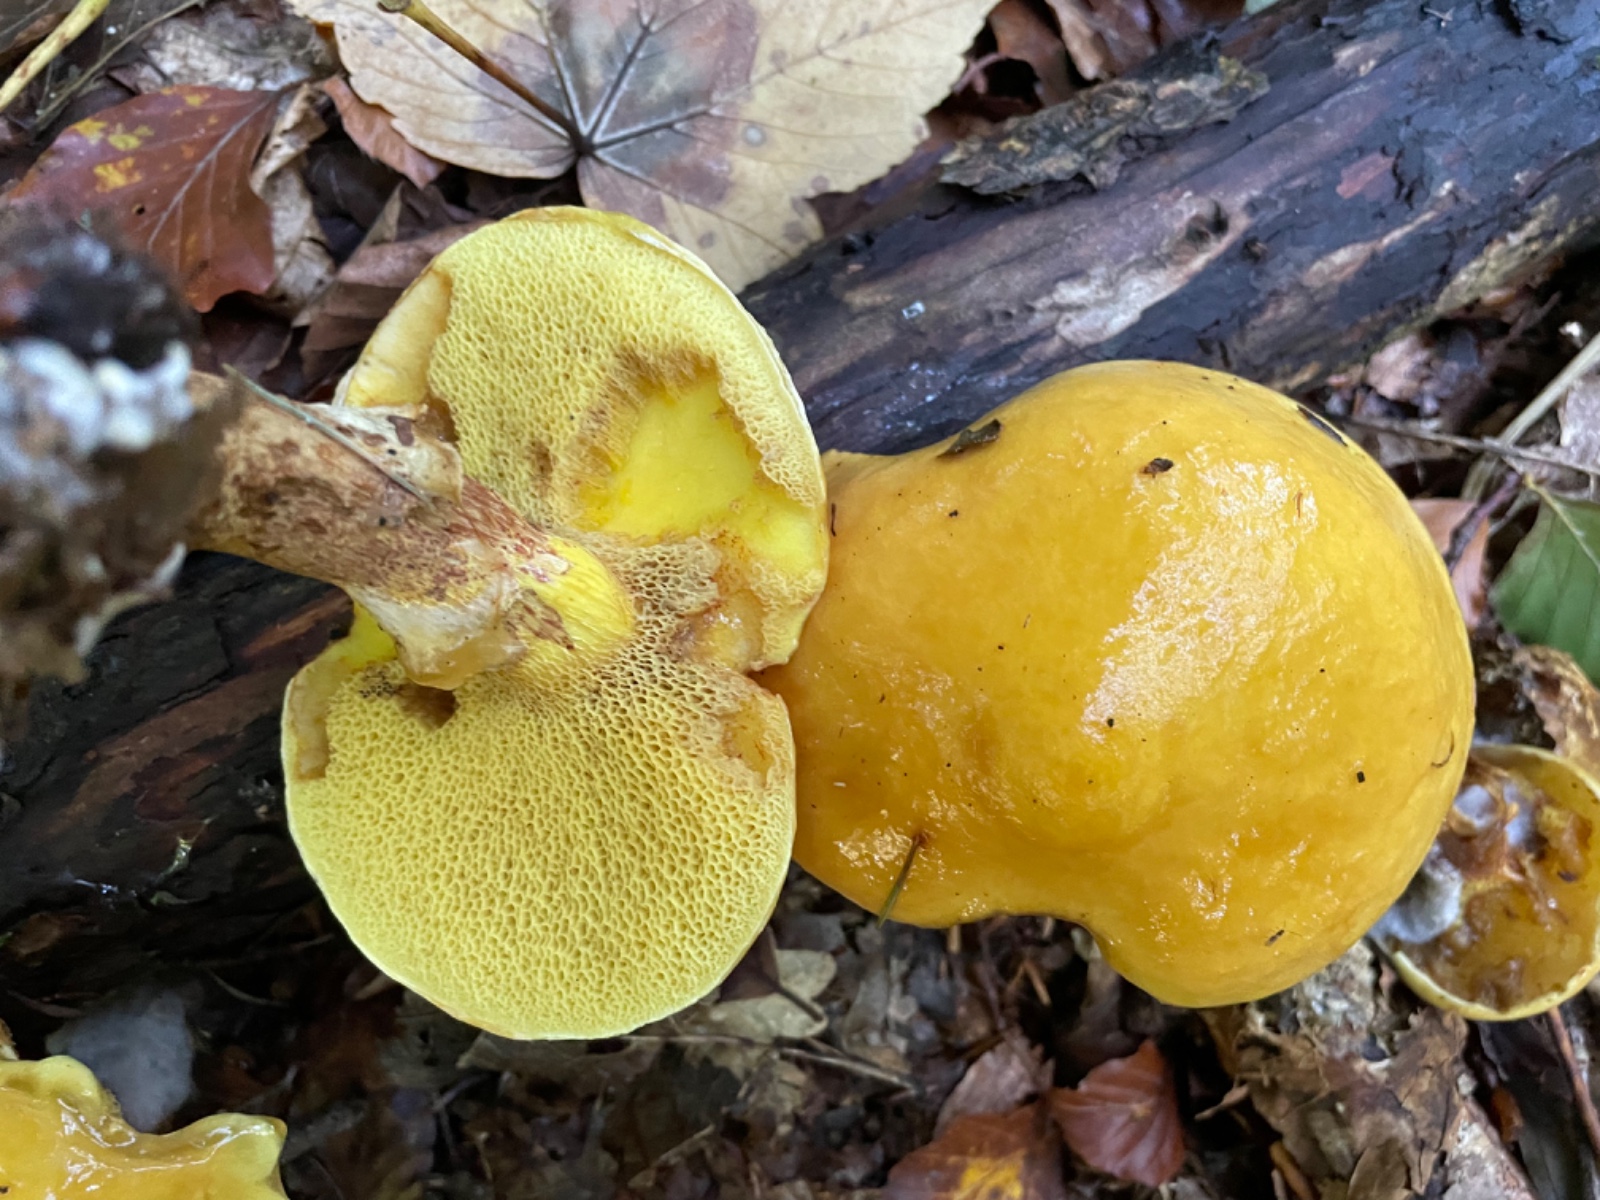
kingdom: Fungi
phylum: Basidiomycota
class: Agaricomycetes
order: Boletales
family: Suillaceae
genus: Suillus
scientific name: Suillus grevillei
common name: lærke-slimrørhat
